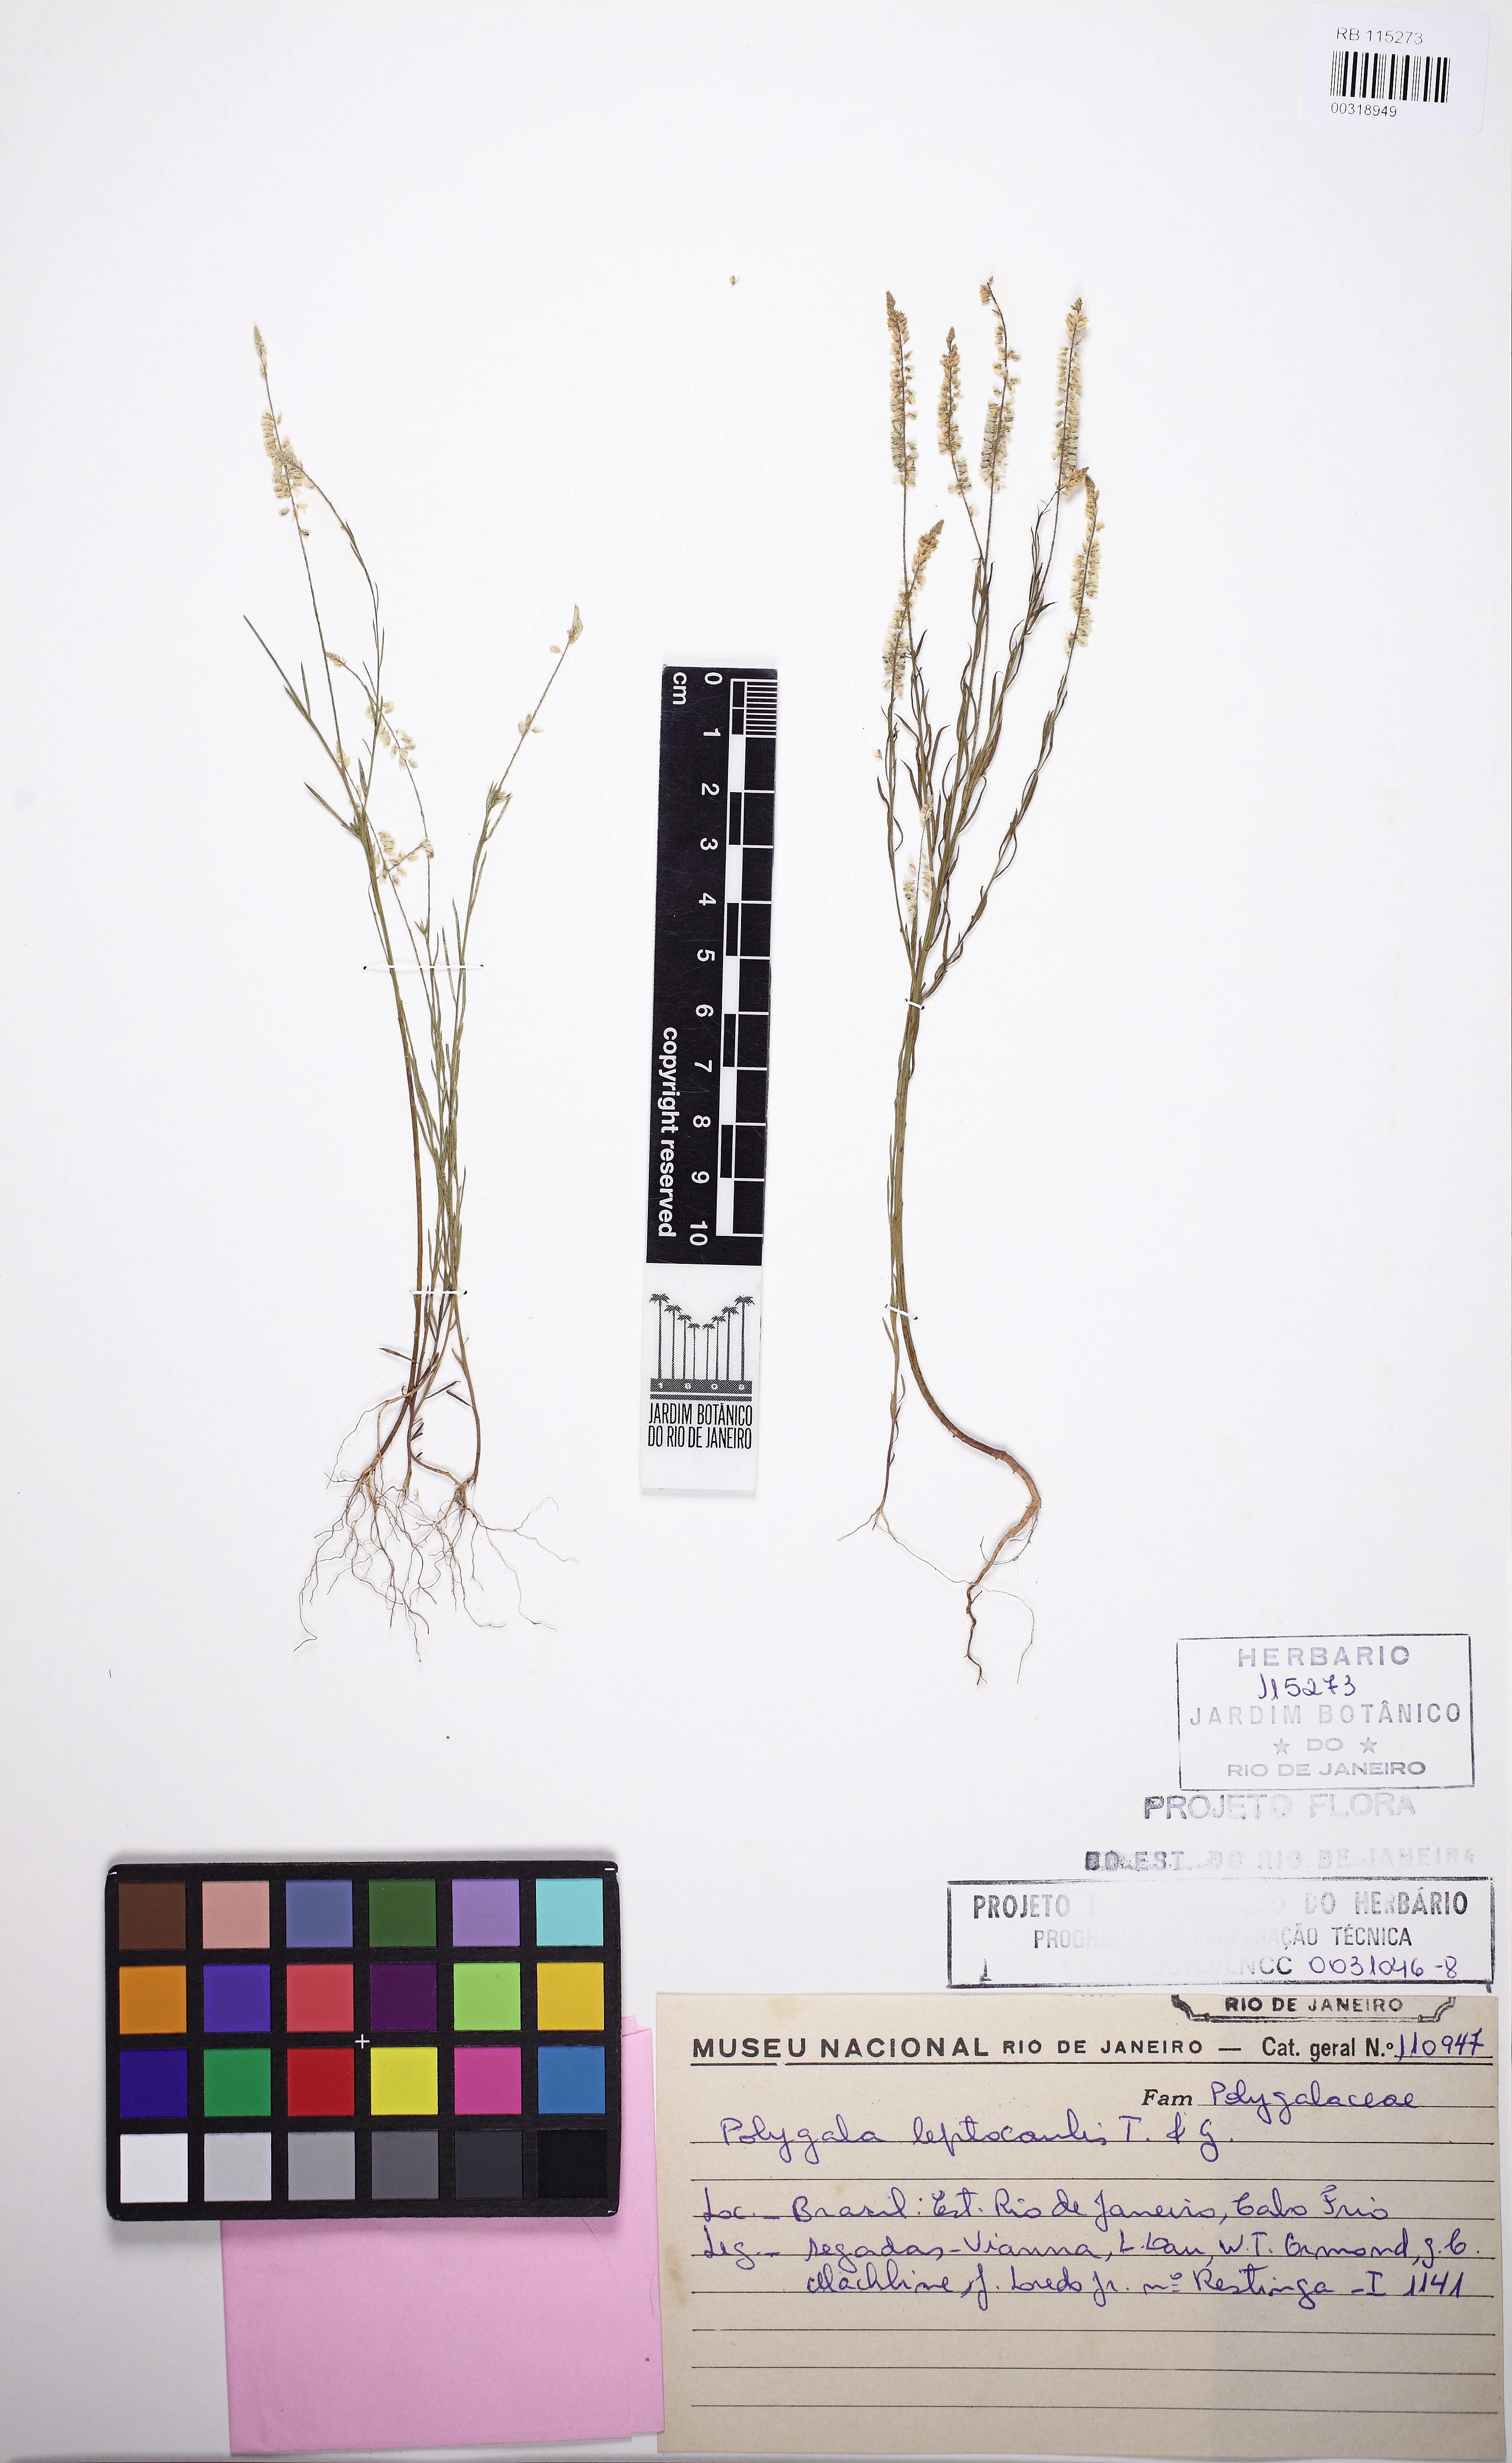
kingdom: Plantae
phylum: Tracheophyta
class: Magnoliopsida
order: Fabales
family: Polygalaceae
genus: Polygala
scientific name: Polygala tenella
